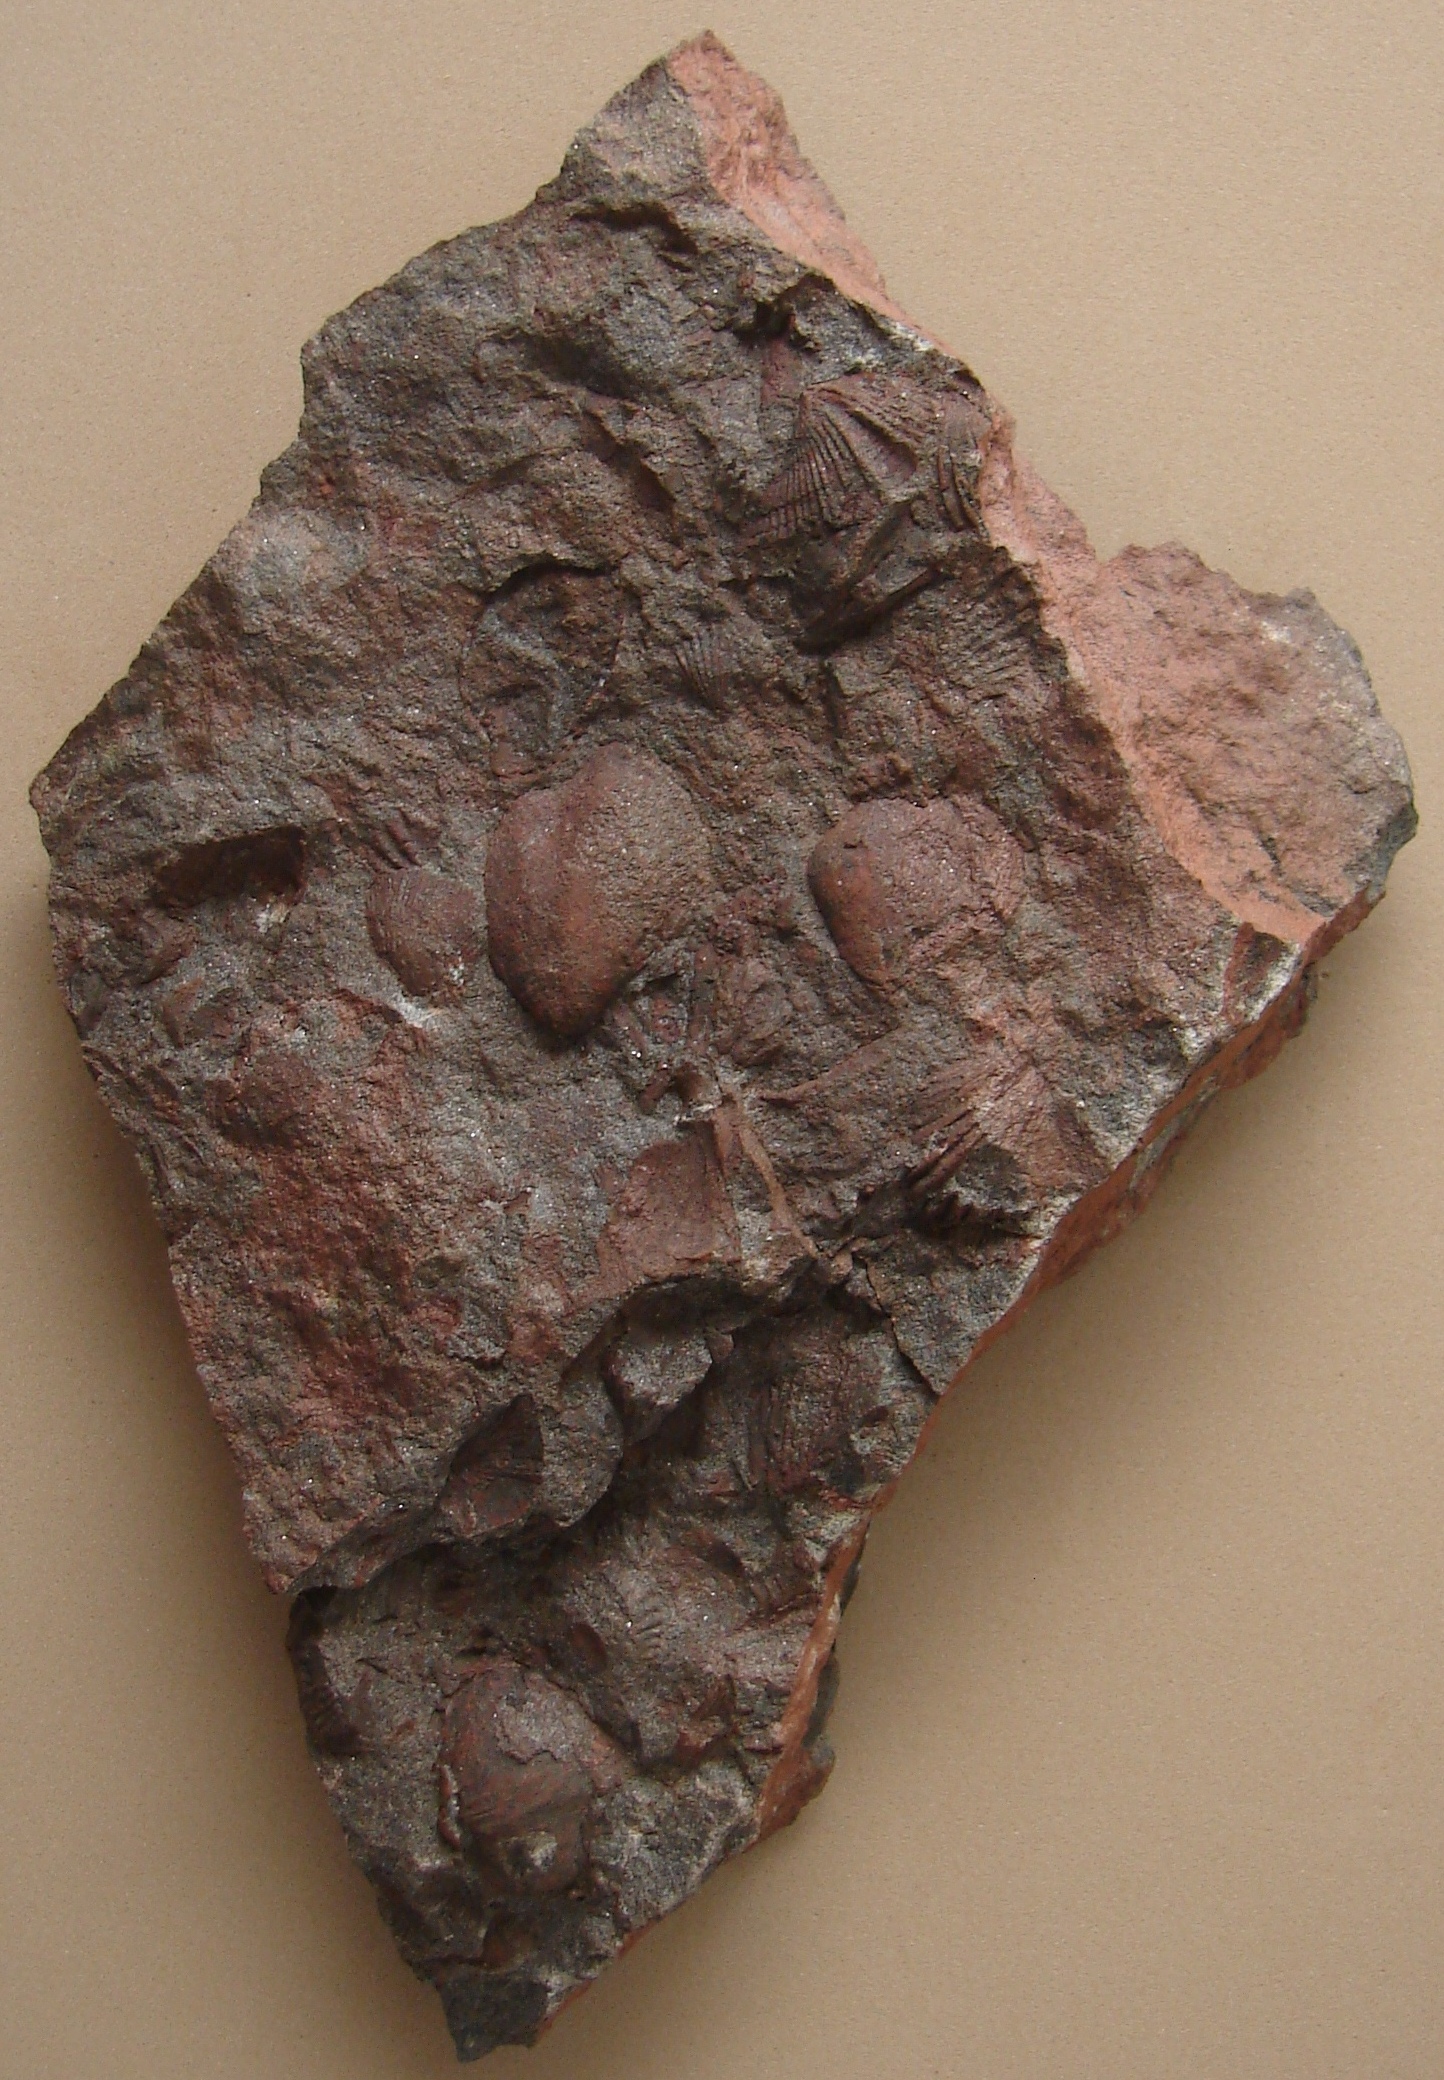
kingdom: Animalia
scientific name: Animalia
